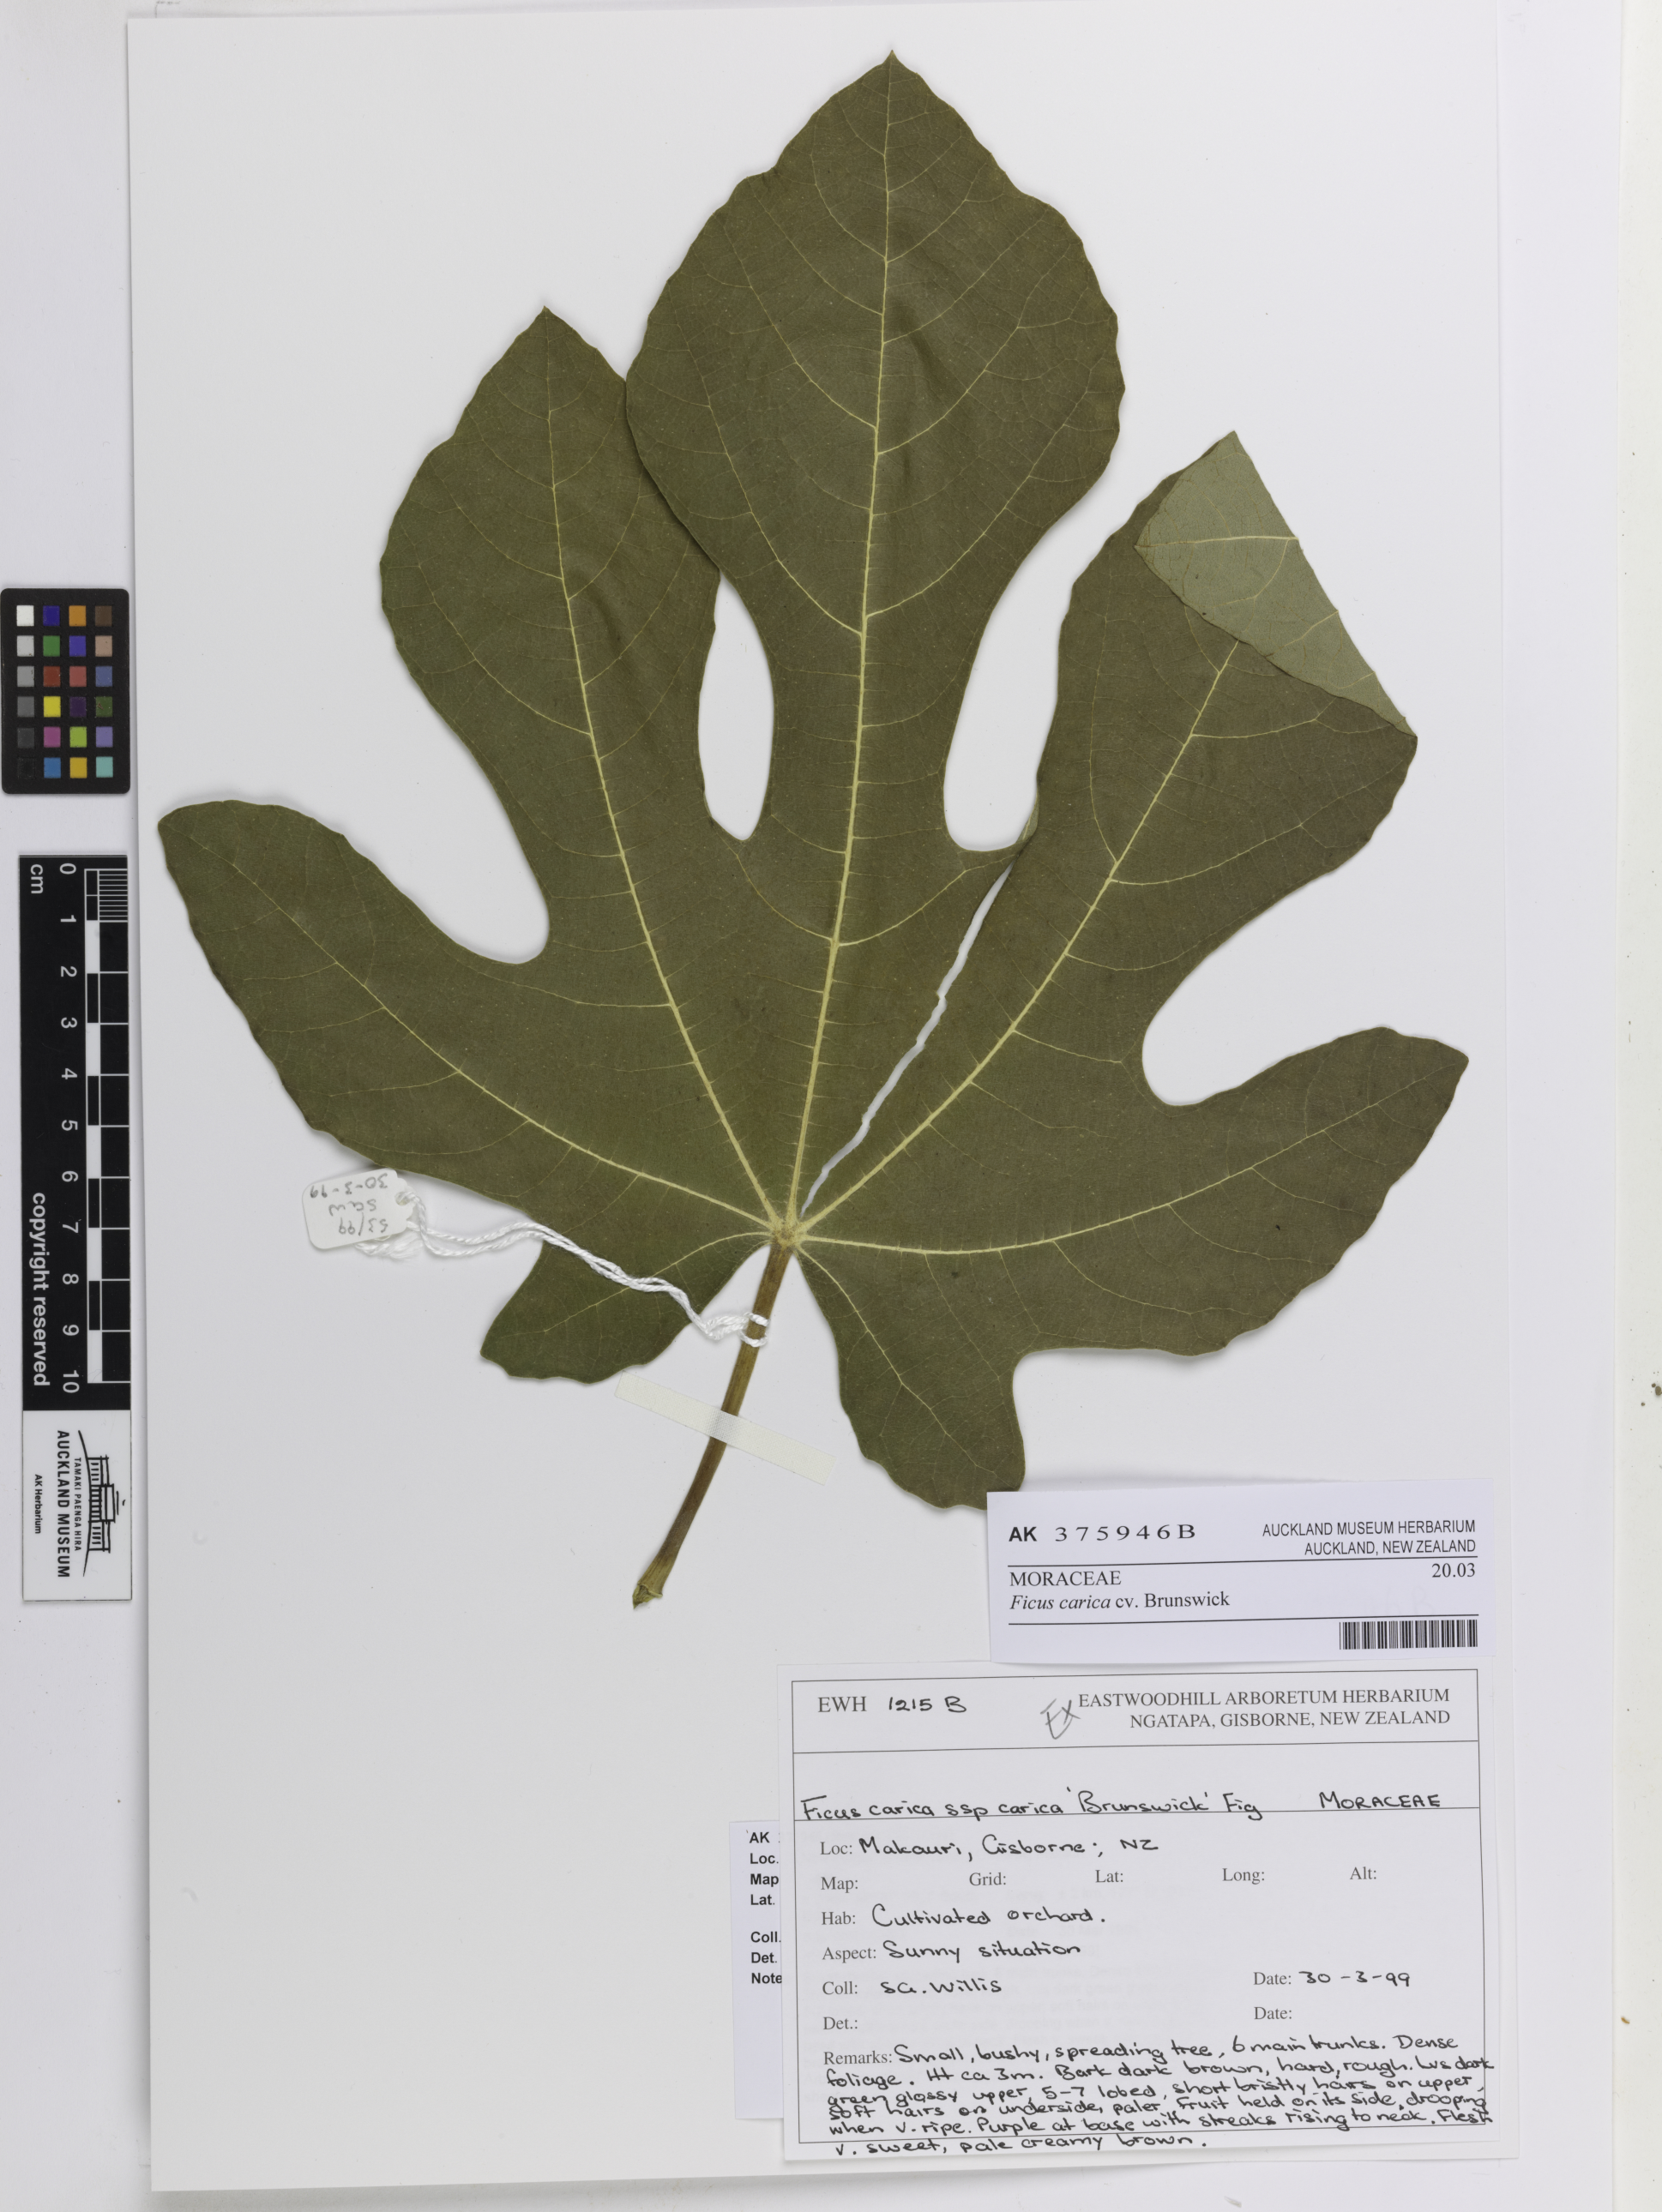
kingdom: Plantae
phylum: Tracheophyta
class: Magnoliopsida
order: Rosales
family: Moraceae
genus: Ficus
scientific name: Ficus carica
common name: Fig
